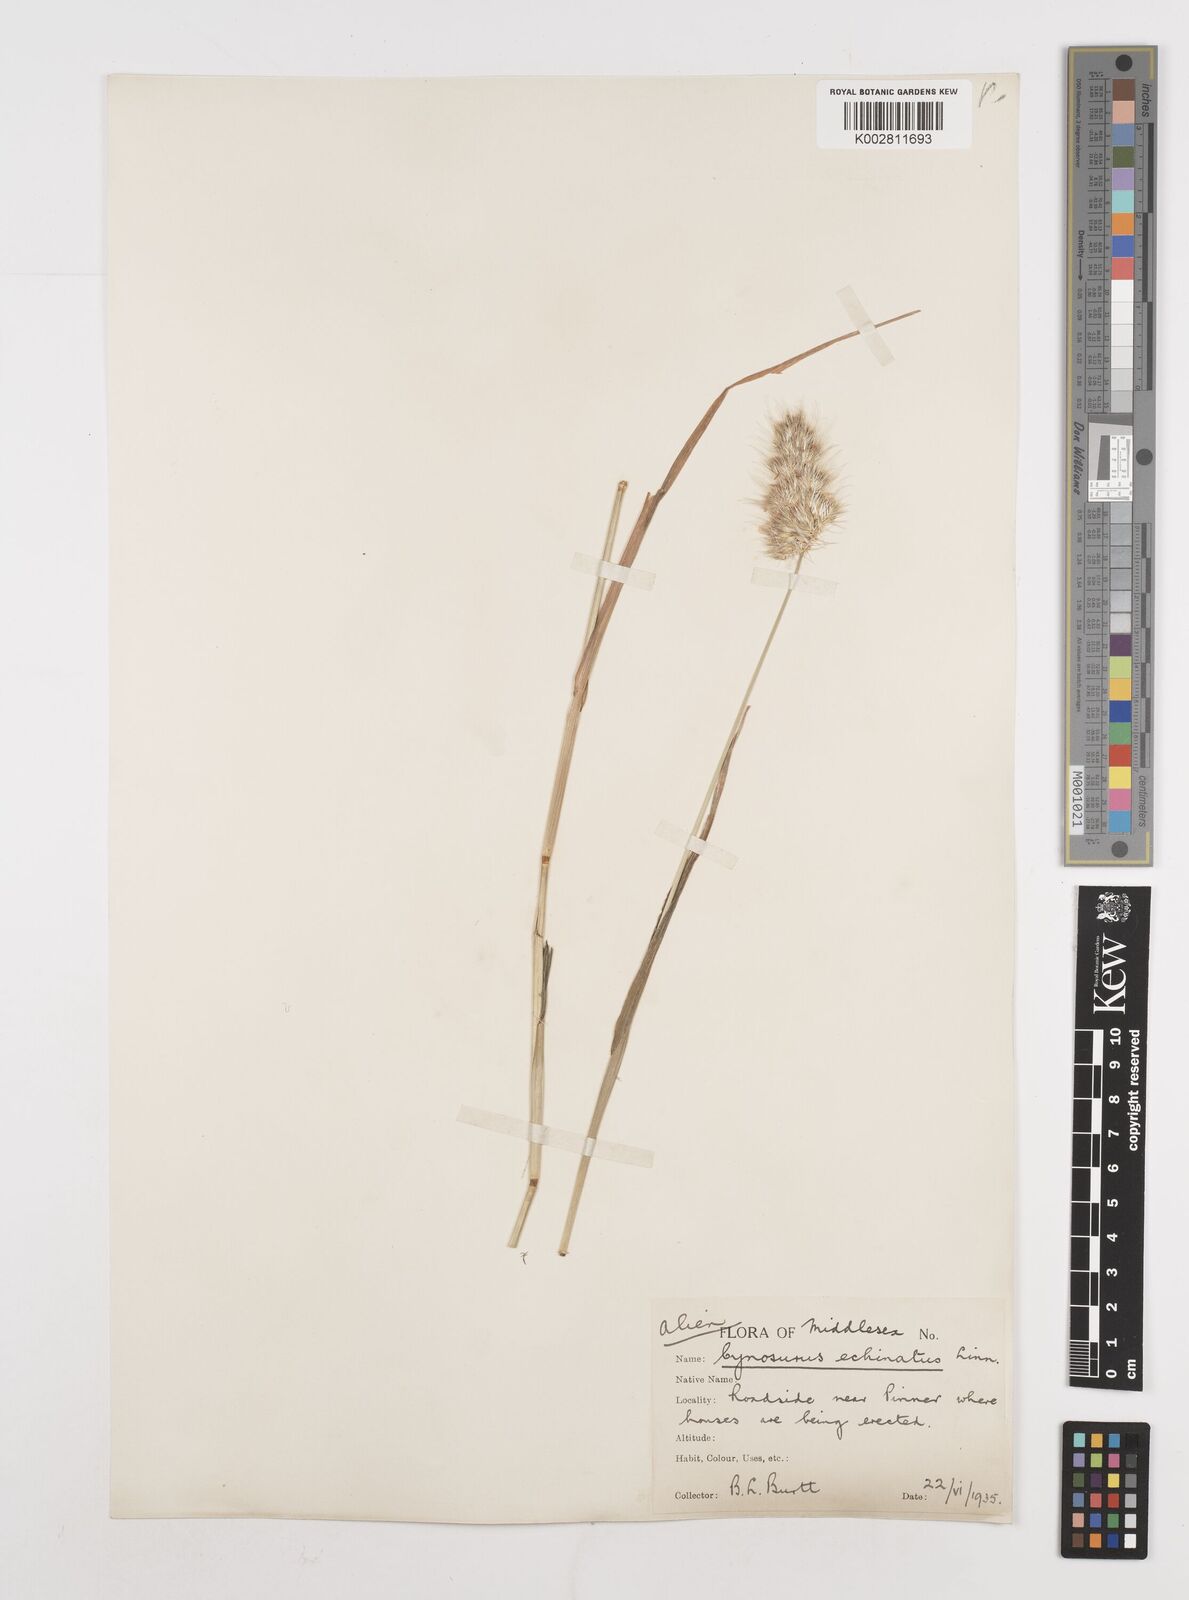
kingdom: Plantae
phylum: Tracheophyta
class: Liliopsida
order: Poales
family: Poaceae
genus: Cynosurus
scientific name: Cynosurus echinatus
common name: Rough dog's-tail
